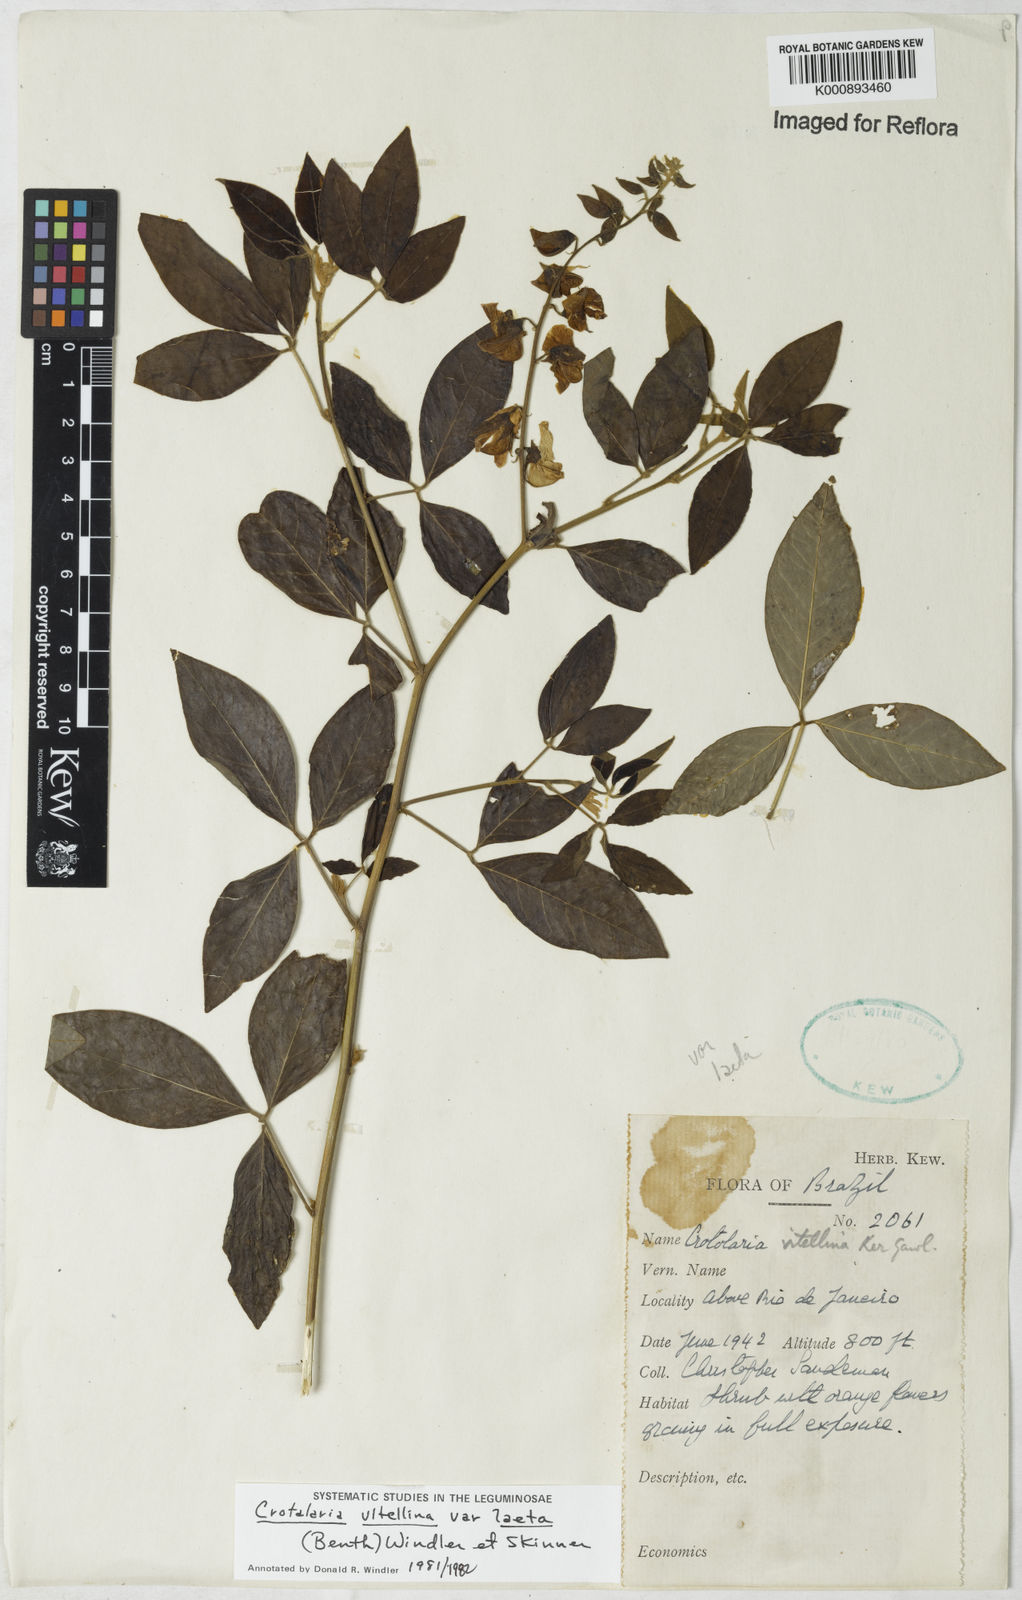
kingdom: Plantae
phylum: Tracheophyta
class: Magnoliopsida
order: Fabales
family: Fabaceae
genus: Crotalaria
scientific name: Crotalaria laeta
